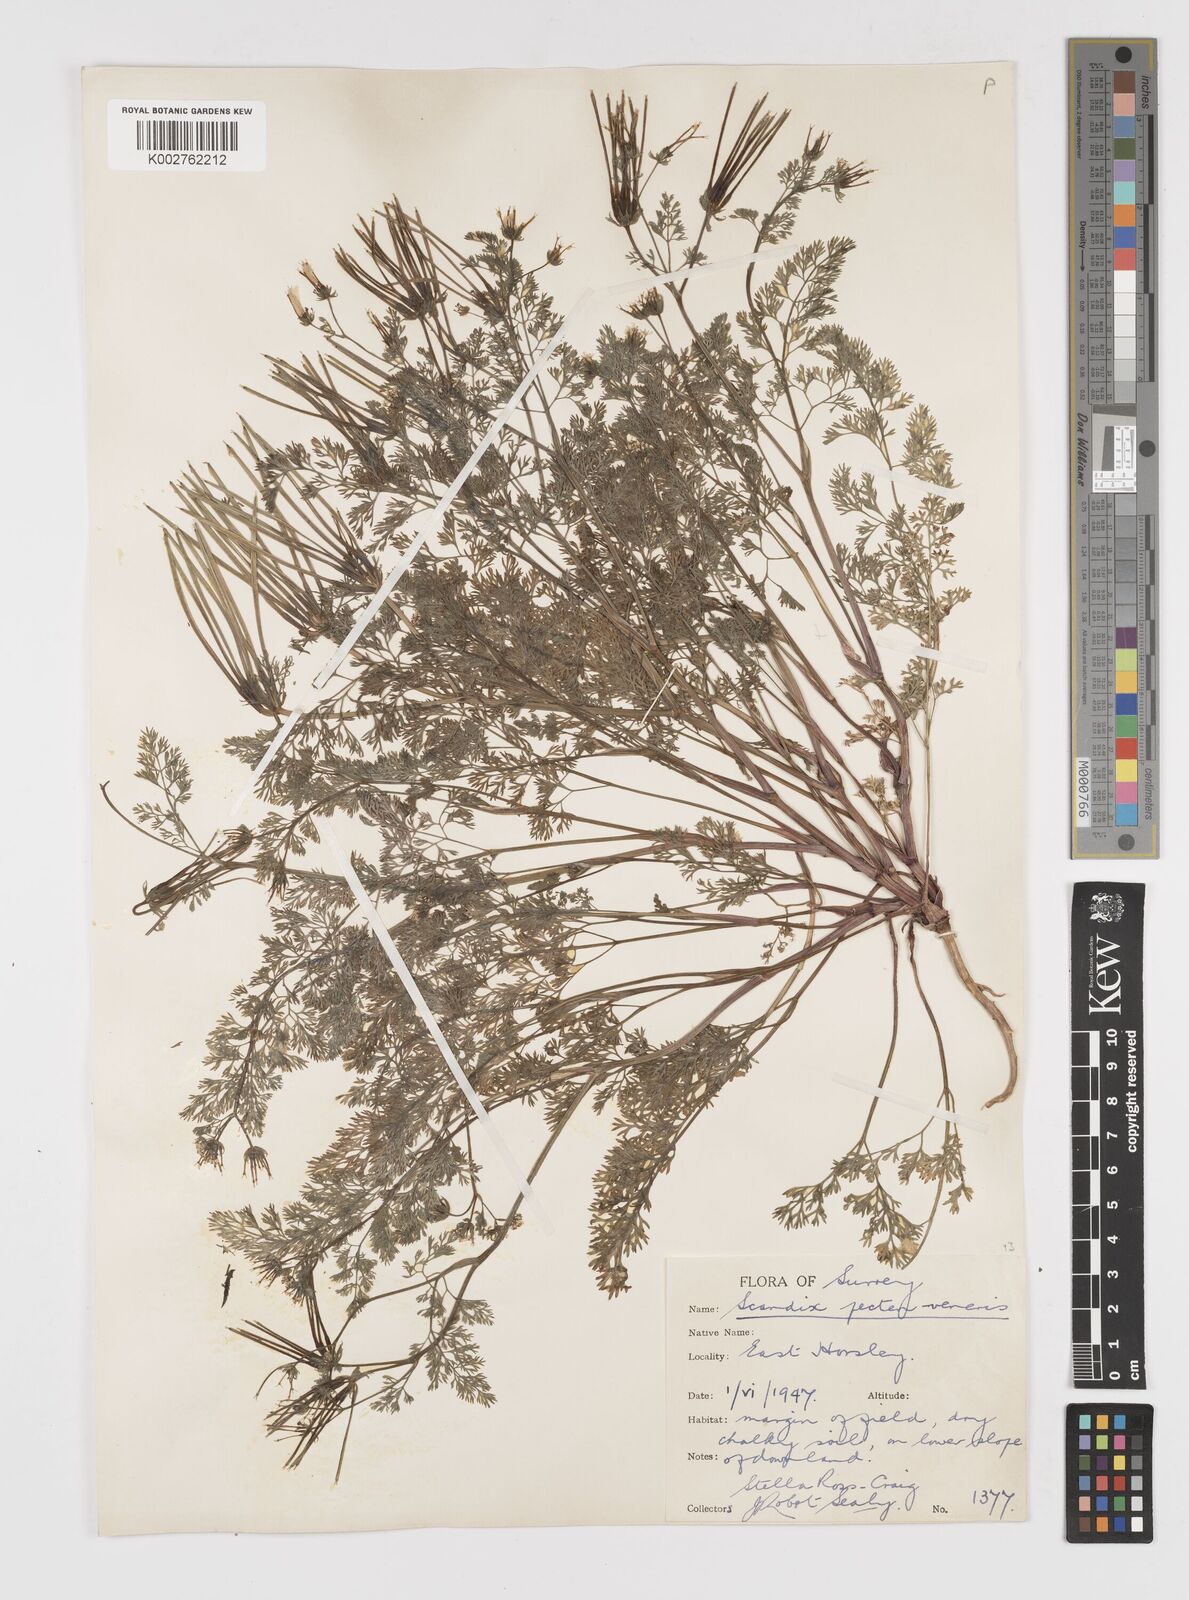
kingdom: Plantae
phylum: Tracheophyta
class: Magnoliopsida
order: Apiales
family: Apiaceae
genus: Scandix
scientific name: Scandix pecten-veneris
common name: Shepherd's-needle
